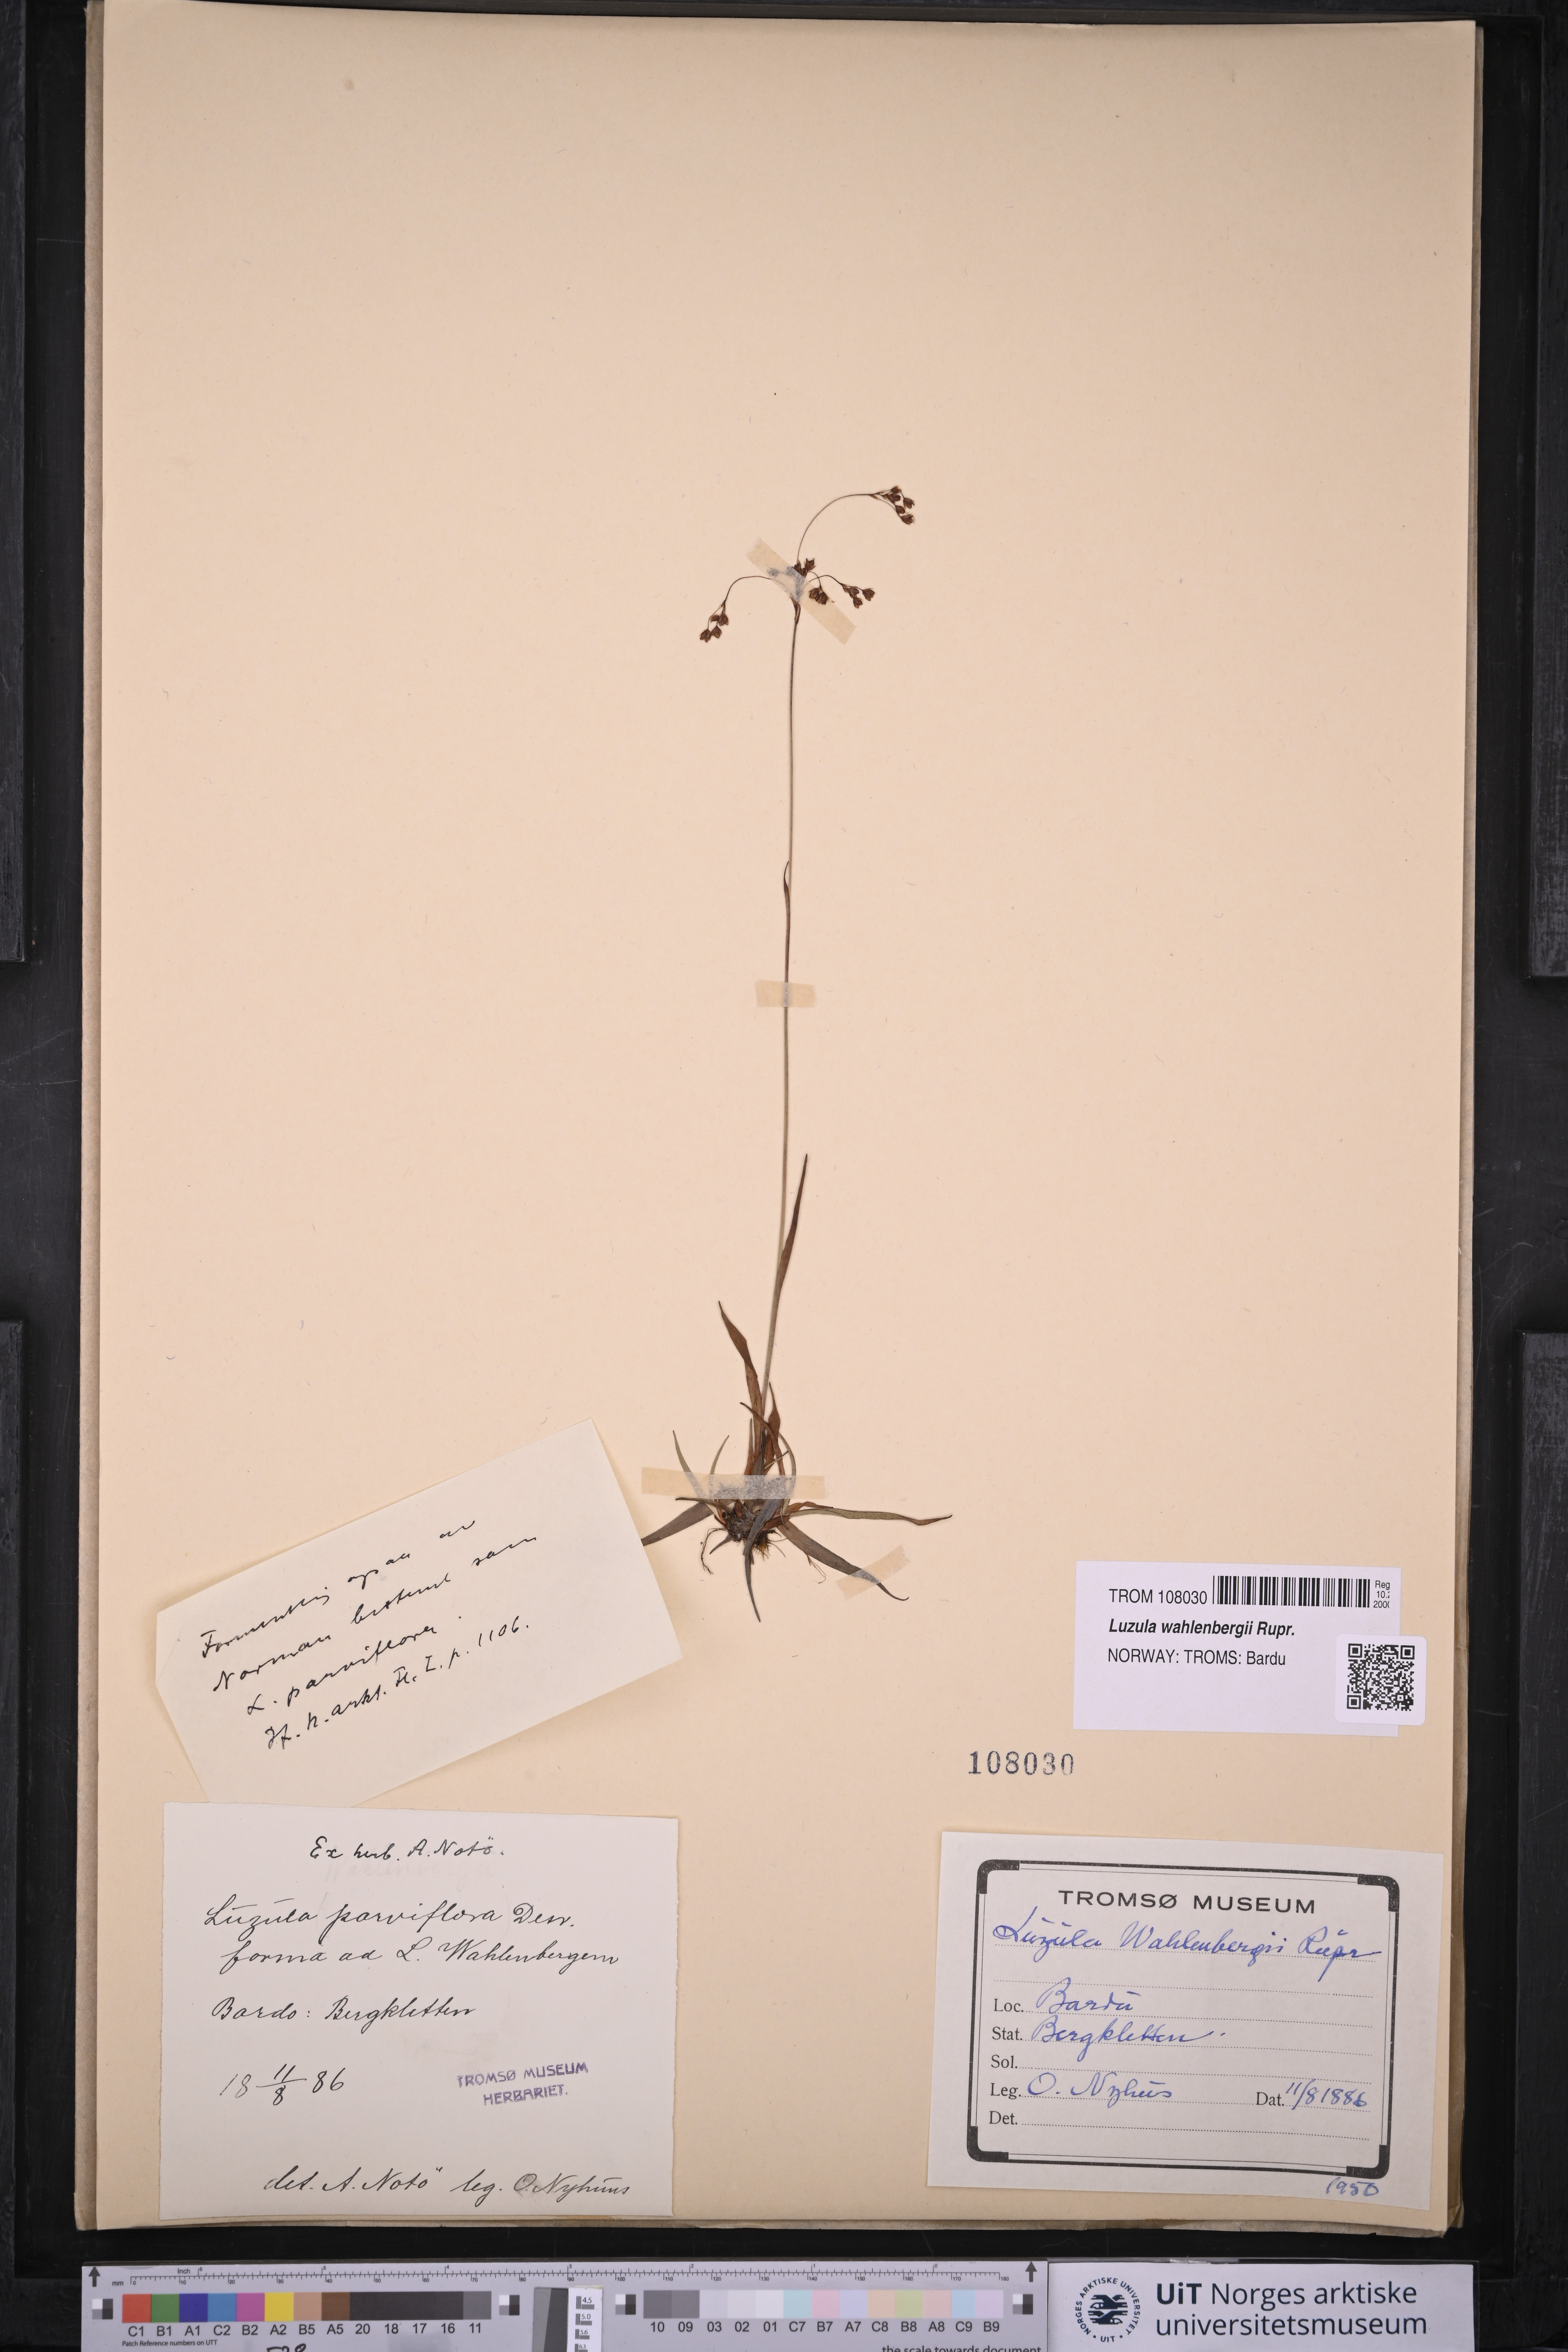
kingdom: Plantae
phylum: Tracheophyta
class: Liliopsida
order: Poales
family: Juncaceae
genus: Luzula
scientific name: Luzula wahlenbergii
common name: Wahlenberg's wood-rush
